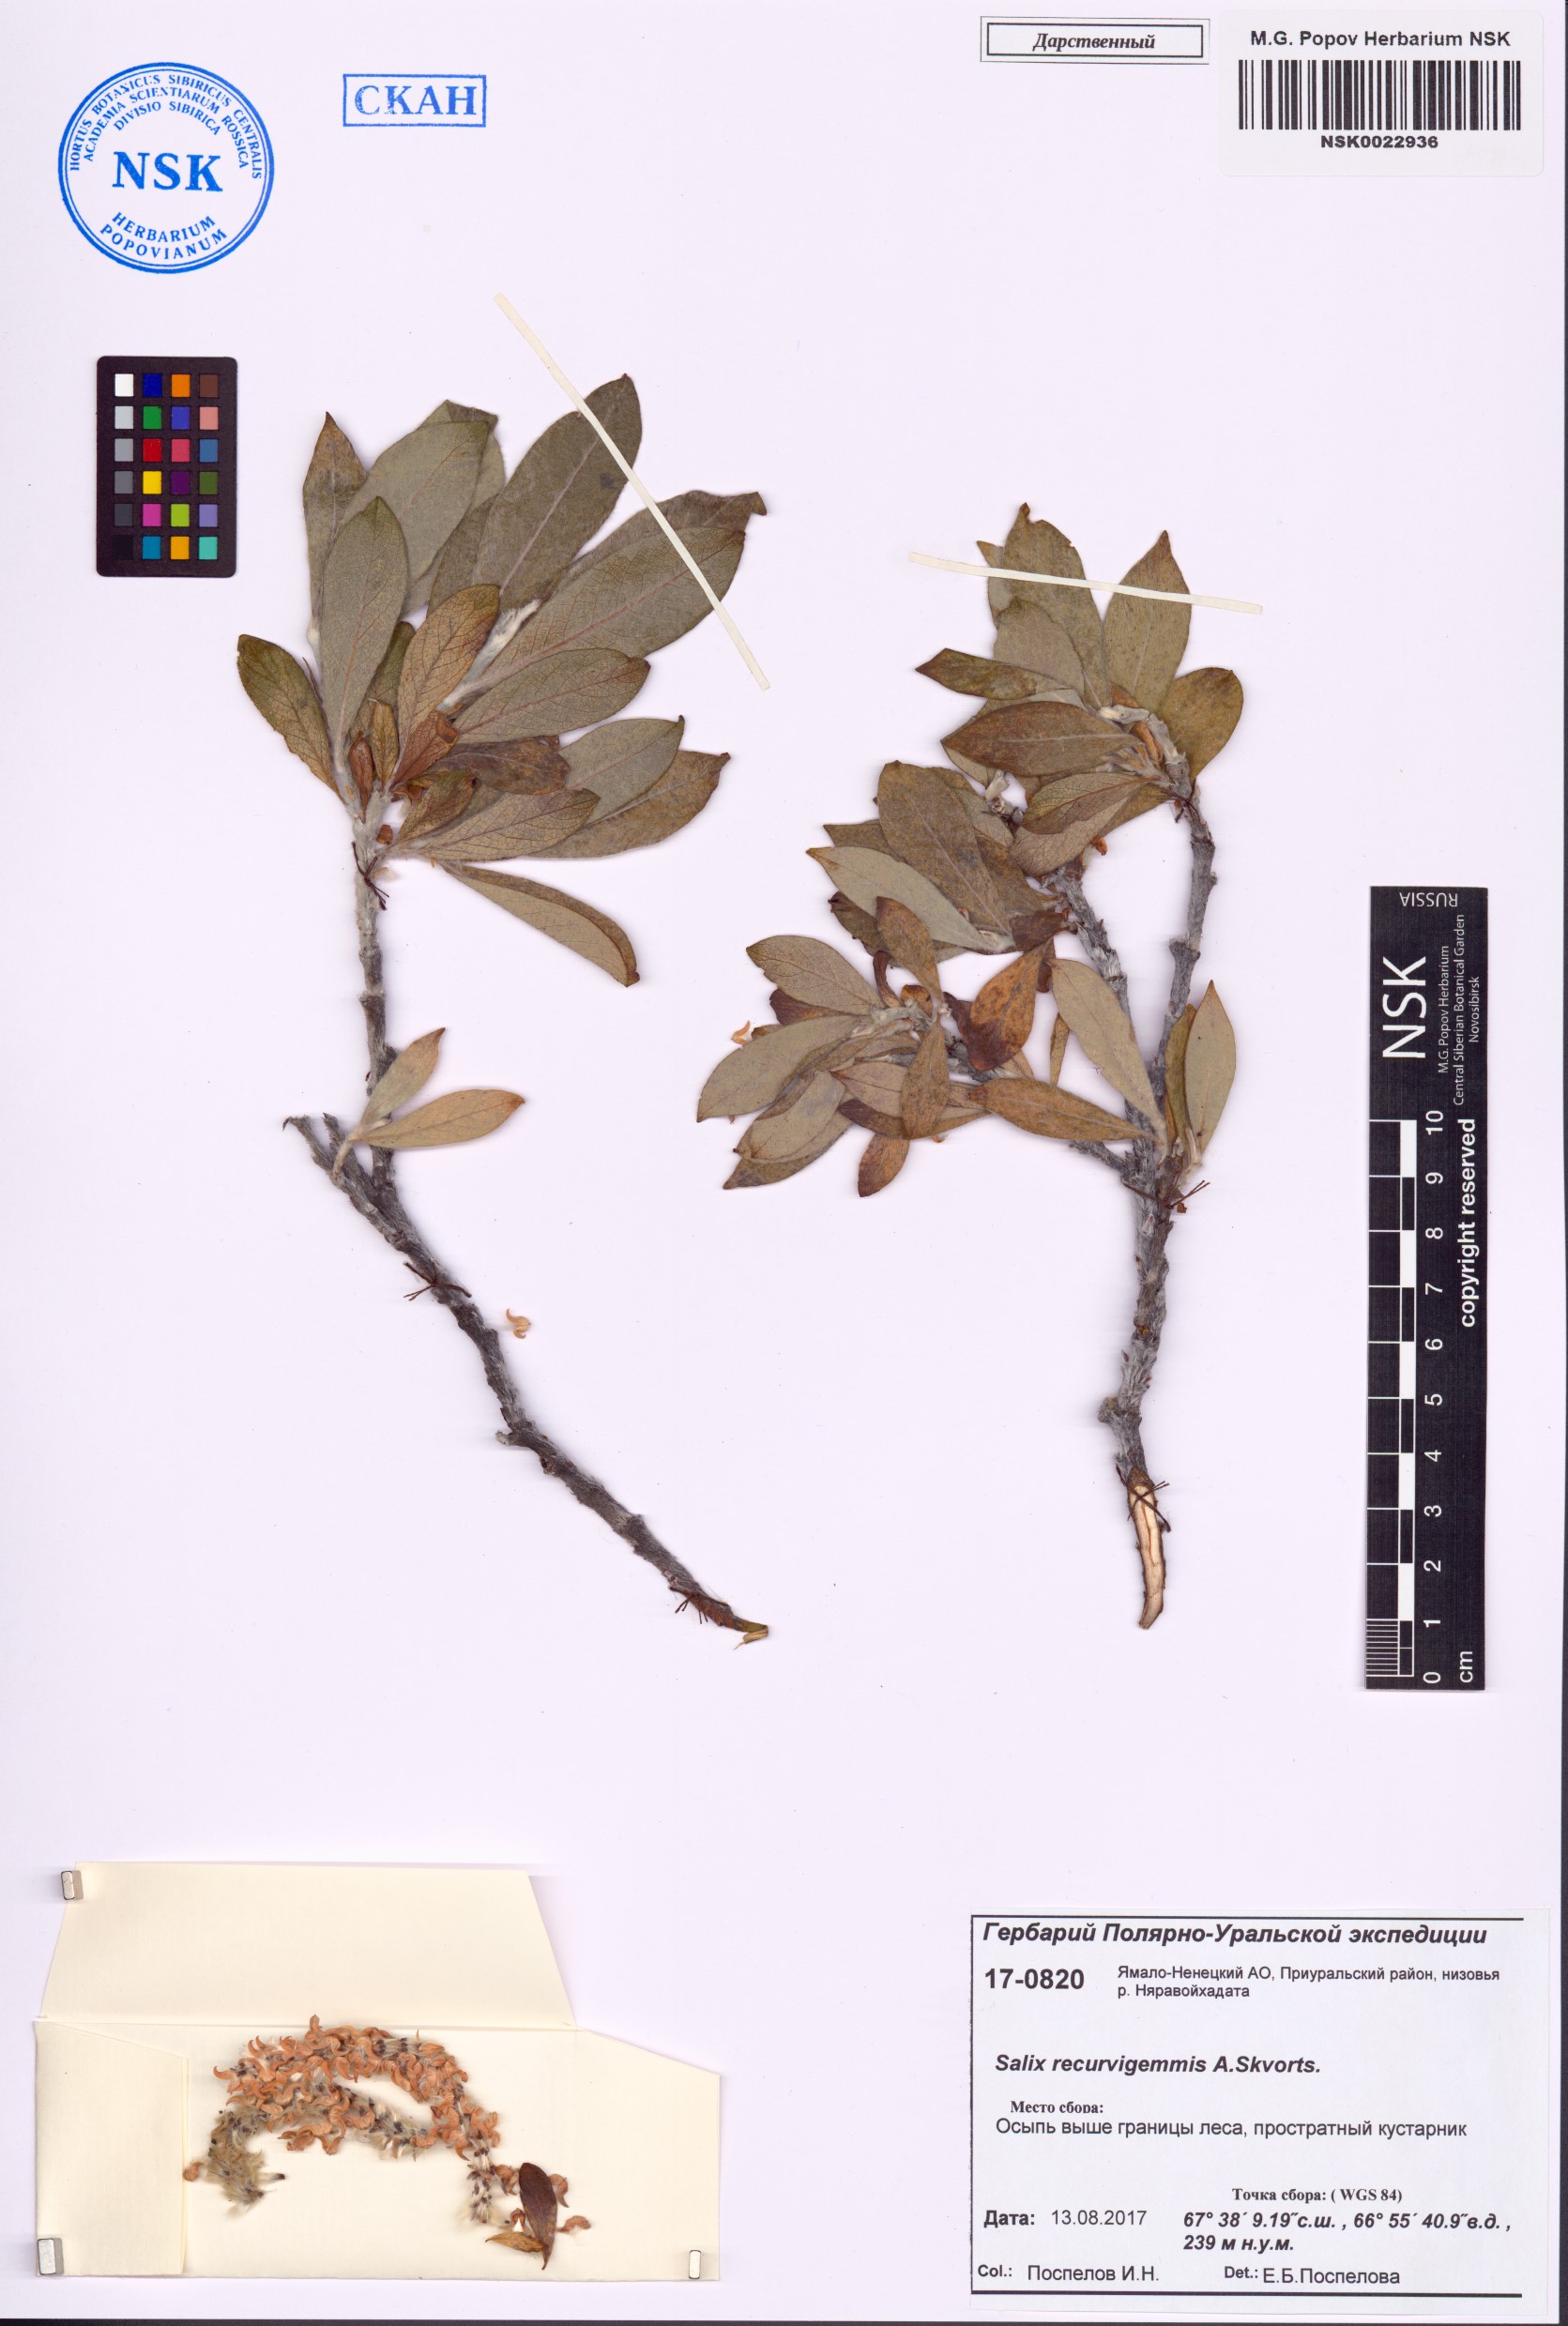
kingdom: Plantae
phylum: Tracheophyta
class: Magnoliopsida
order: Malpighiales
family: Salicaceae
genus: Salix
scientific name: Salix recurvigemmata
